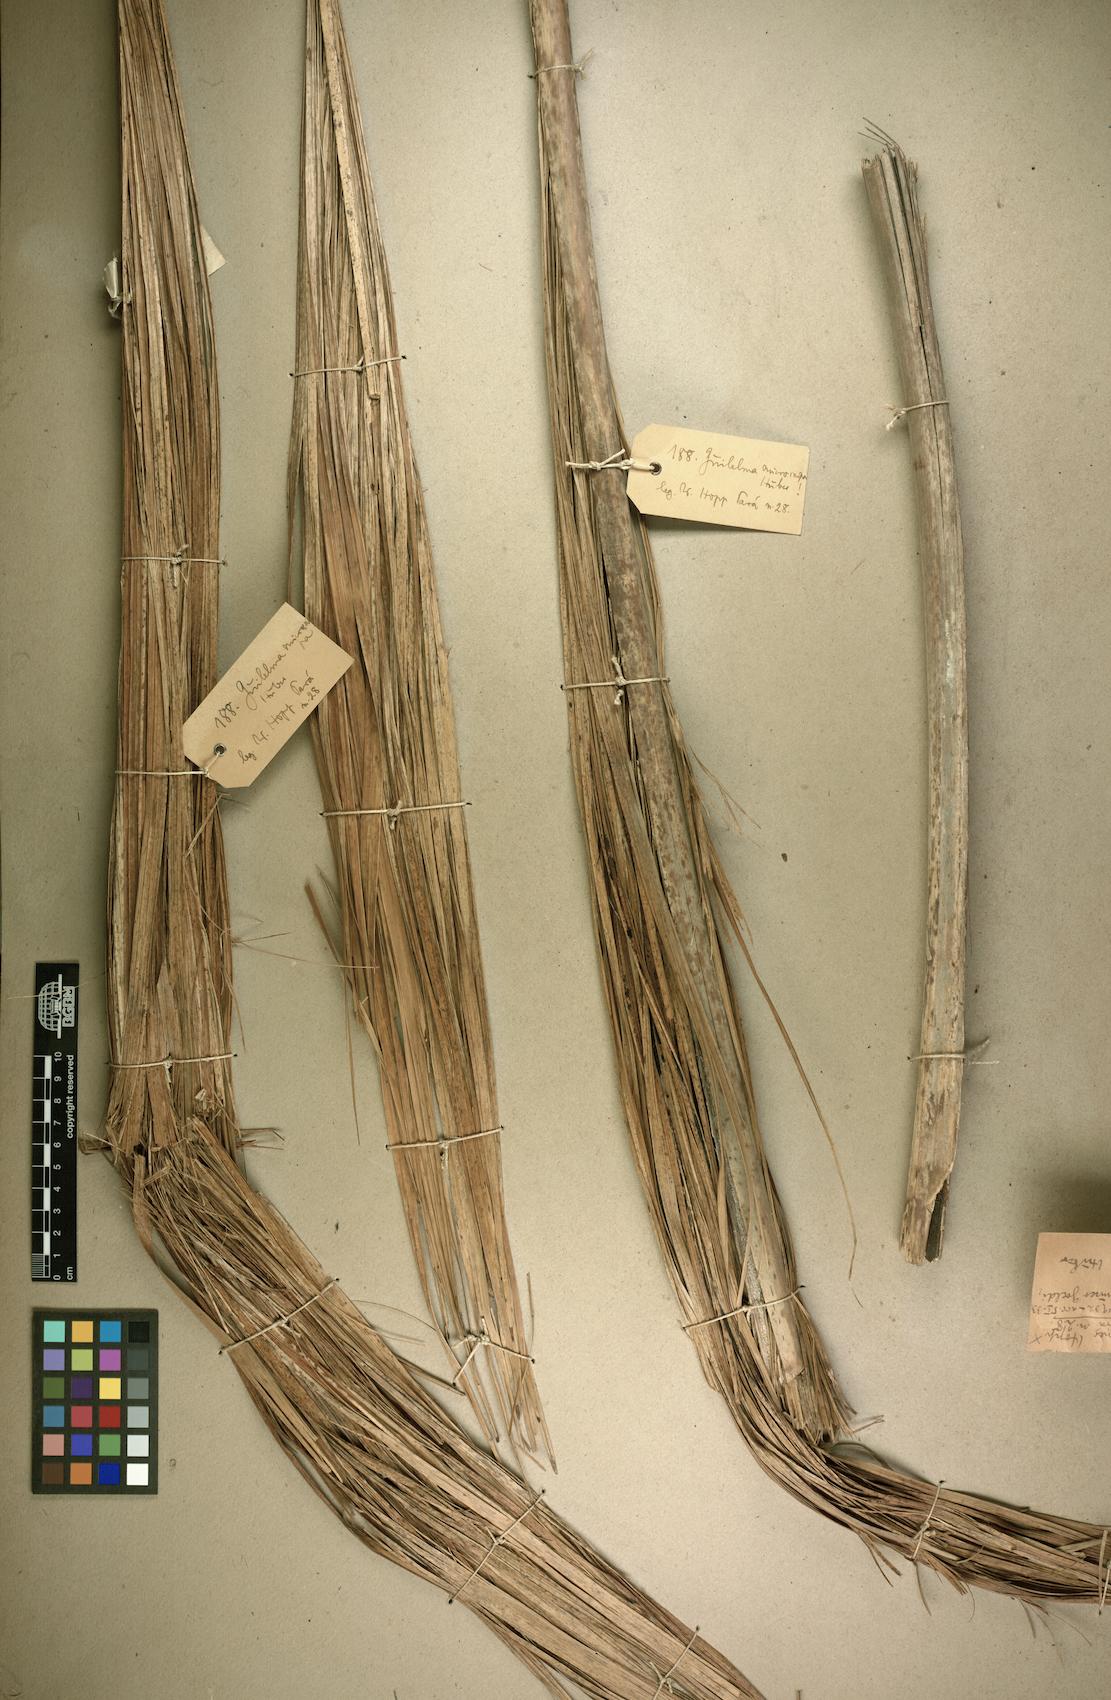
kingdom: Plantae
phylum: Tracheophyta
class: Liliopsida
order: Arecales
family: Arecaceae
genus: Bactris
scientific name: Bactris gasipaes
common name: Peach palm
